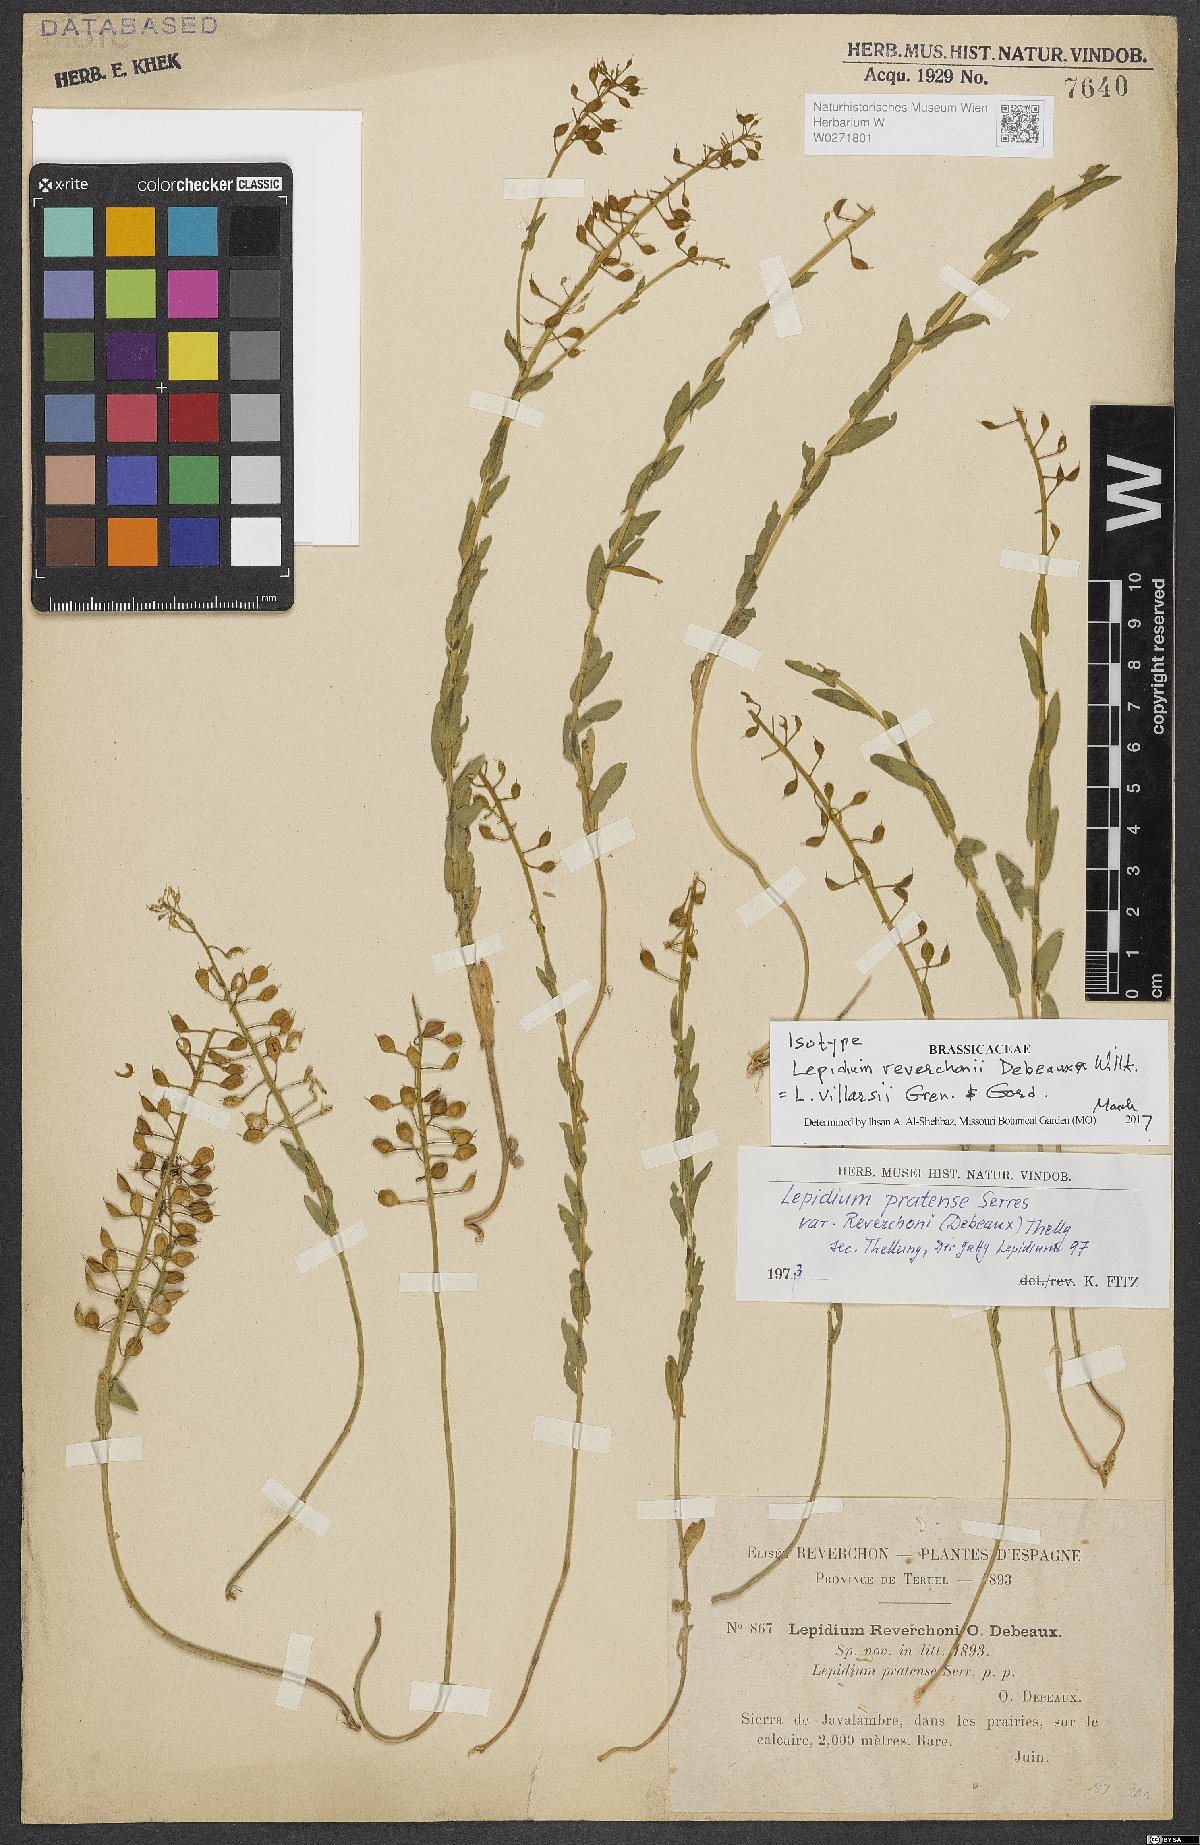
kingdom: Plantae
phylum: Tracheophyta
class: Magnoliopsida
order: Brassicales
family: Brassicaceae
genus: Lepidium
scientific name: Lepidium villarsii
